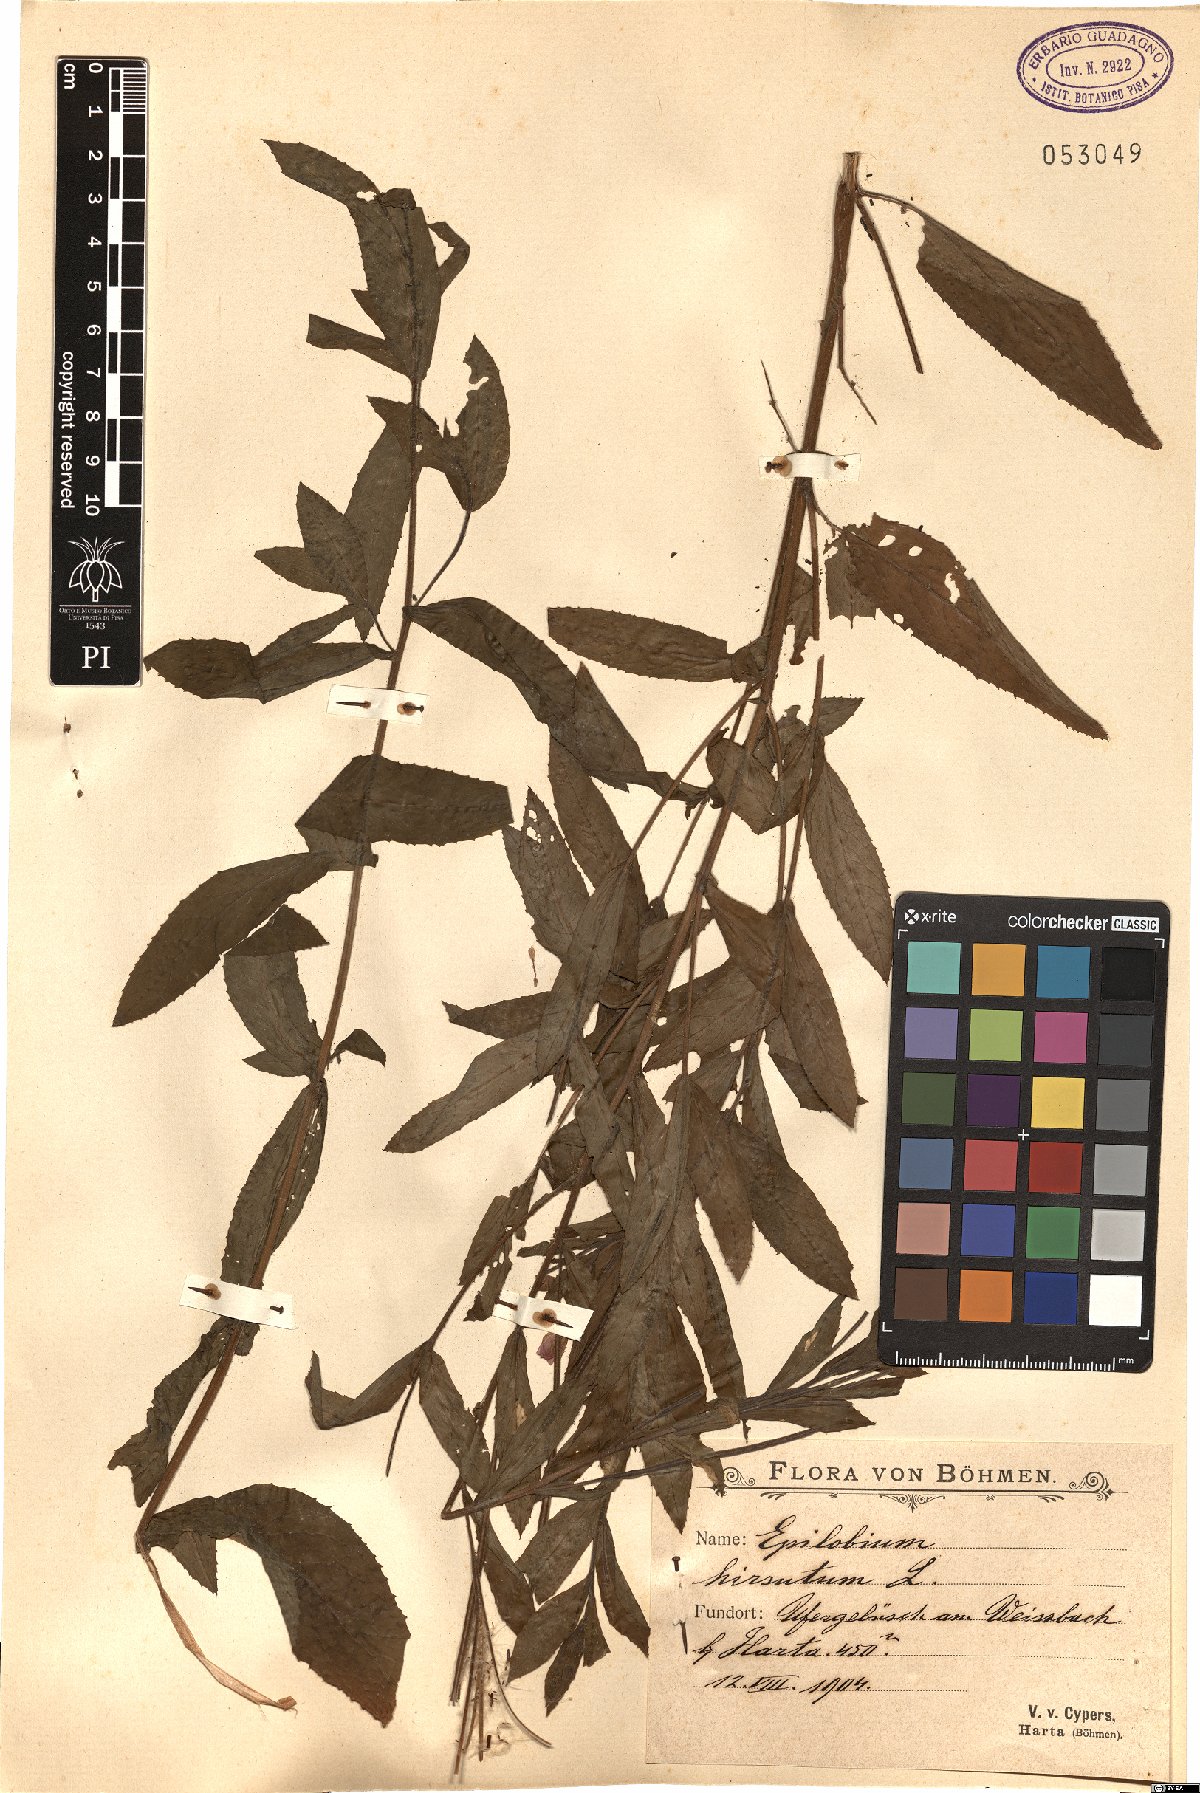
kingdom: Plantae
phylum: Tracheophyta
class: Magnoliopsida
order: Myrtales
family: Onagraceae
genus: Epilobium
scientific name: Epilobium hirsutum
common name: Great willowherb
